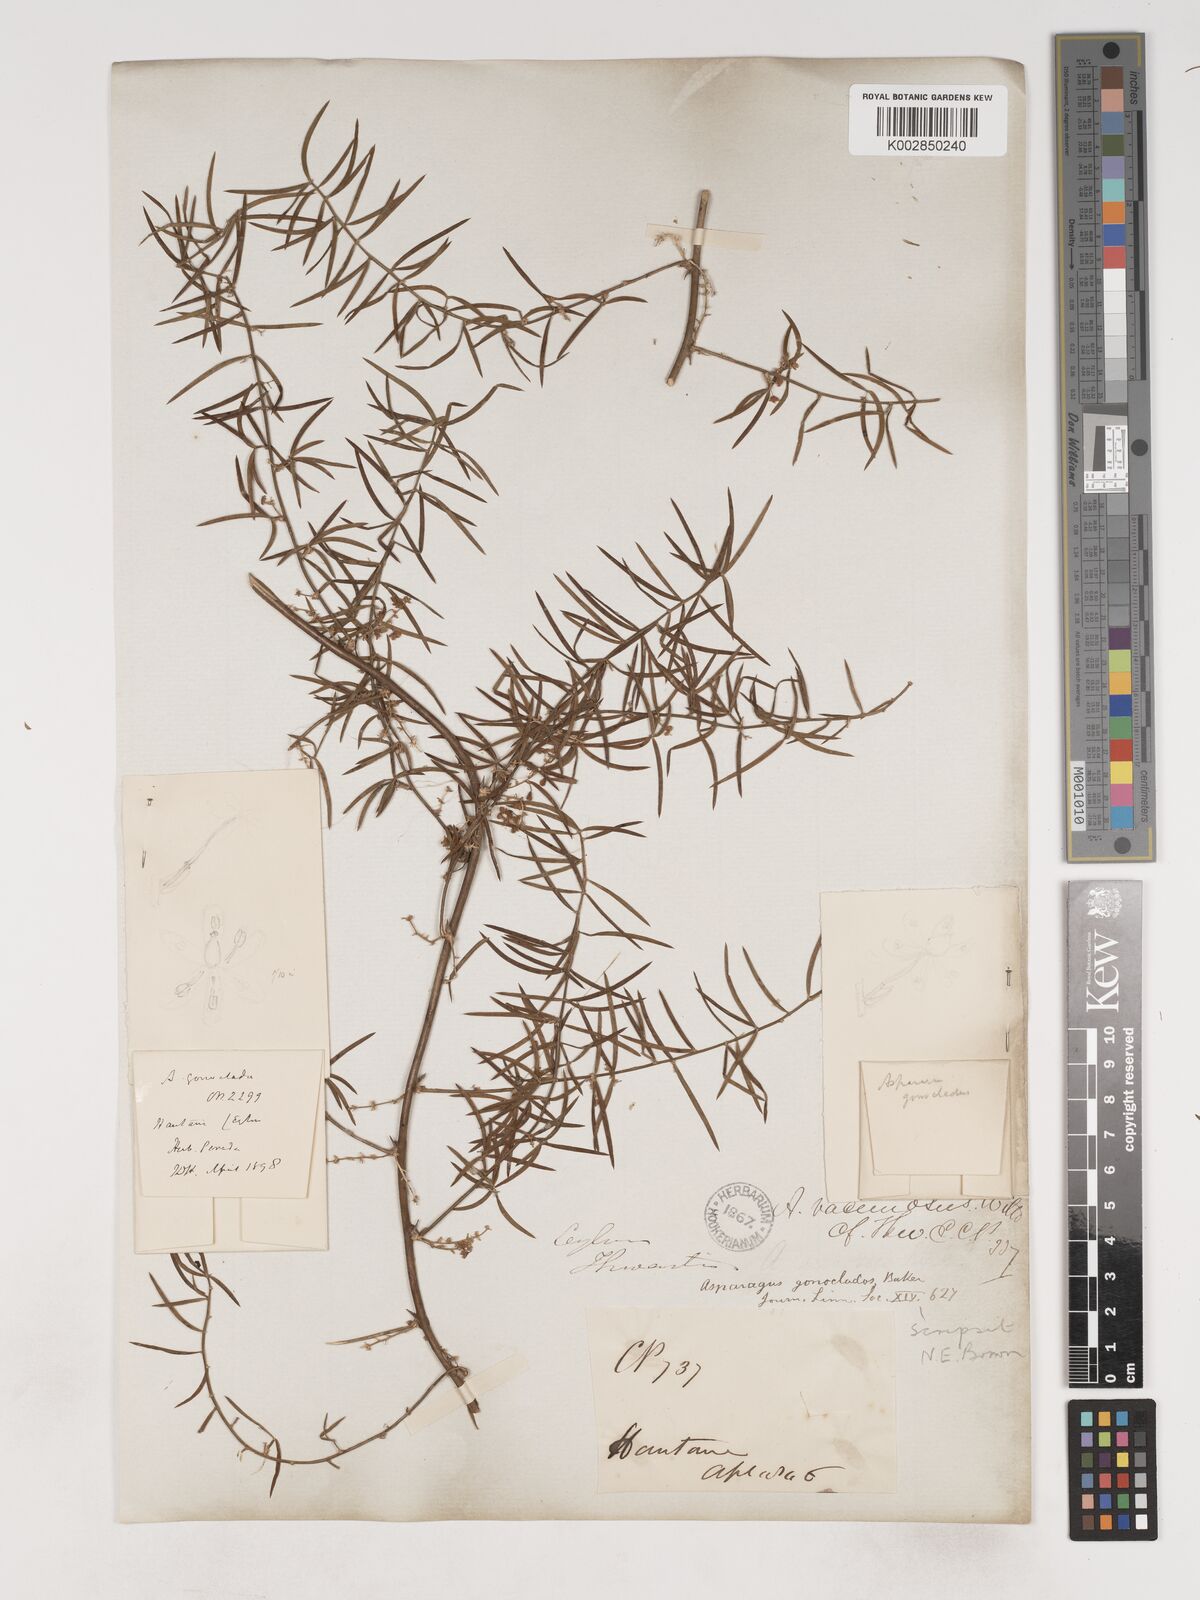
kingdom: Plantae
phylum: Tracheophyta
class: Liliopsida
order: Asparagales
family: Asparagaceae
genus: Asparagus
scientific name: Asparagus gonoclados
